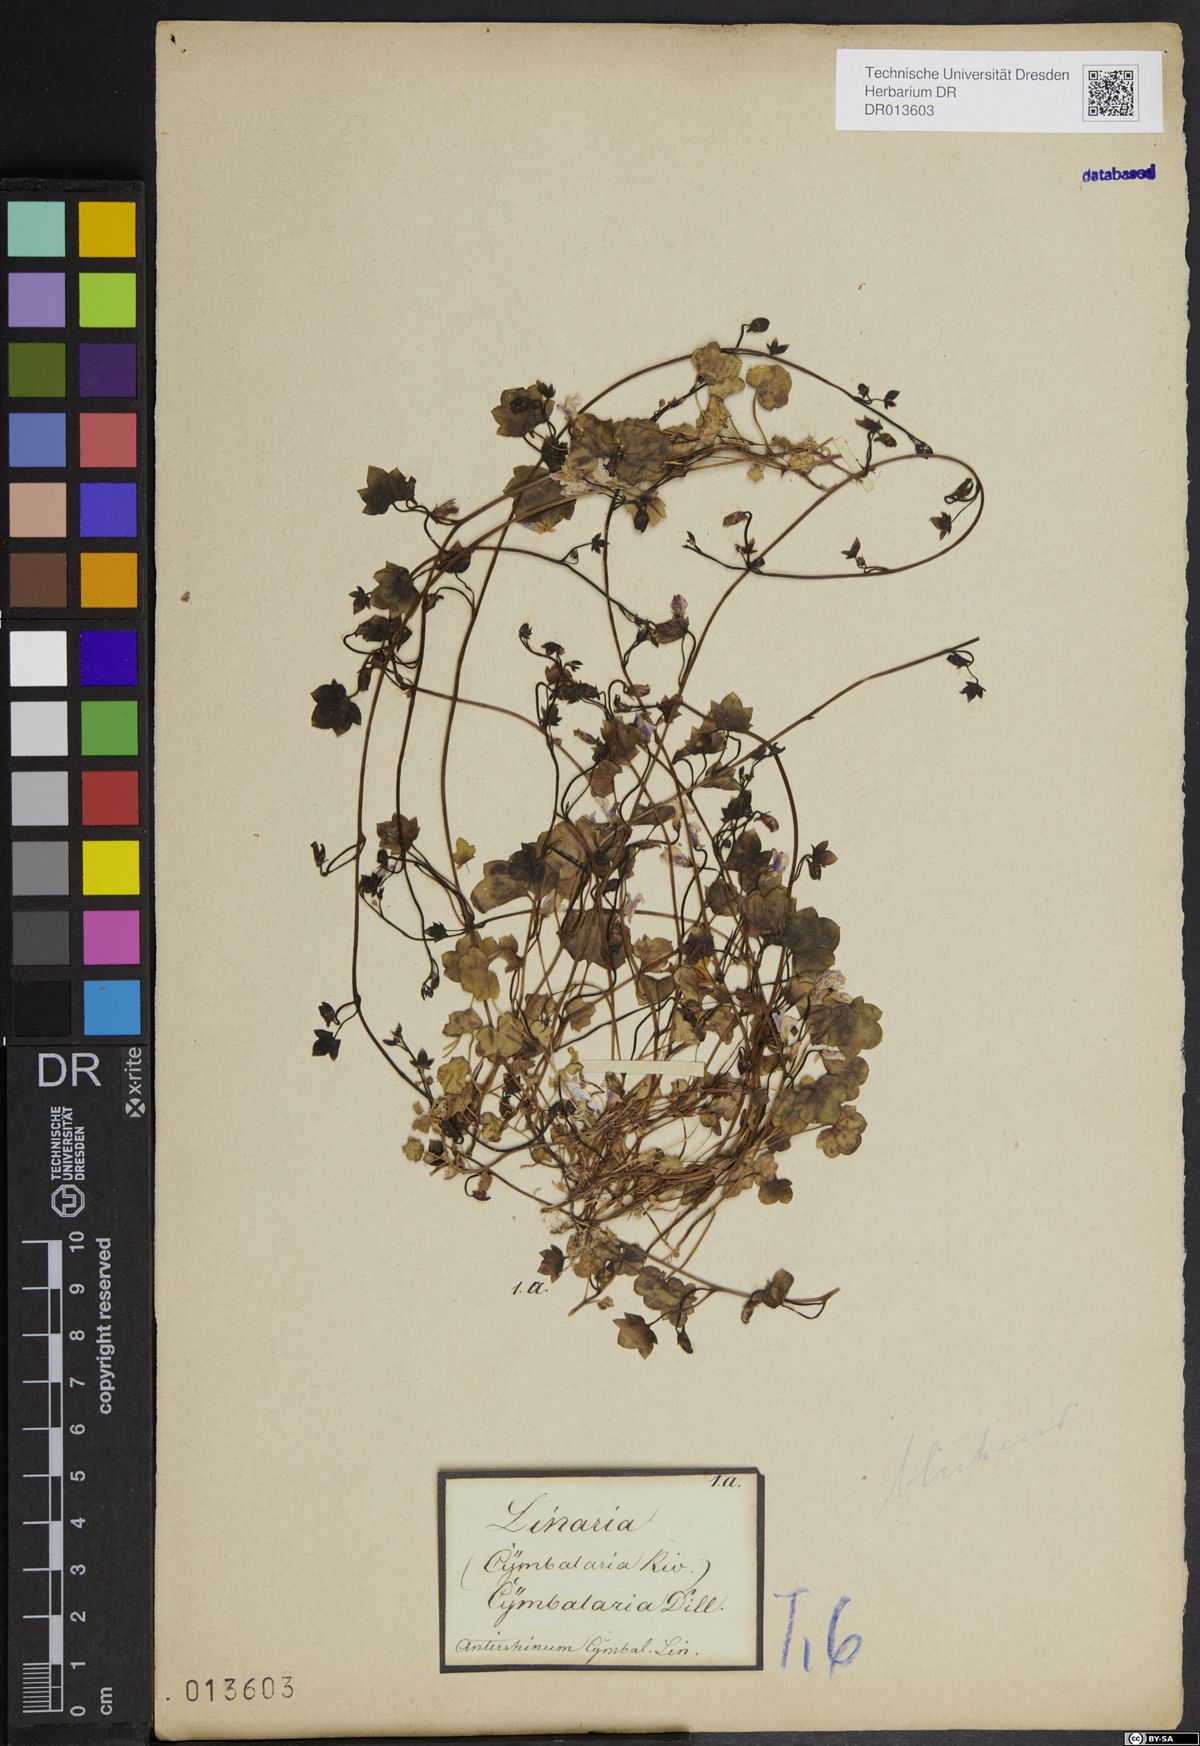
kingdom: Plantae
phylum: Tracheophyta
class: Magnoliopsida
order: Lamiales
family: Plantaginaceae
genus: Cymbalaria
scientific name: Cymbalaria muralis
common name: Ivy-leaved toadflax
